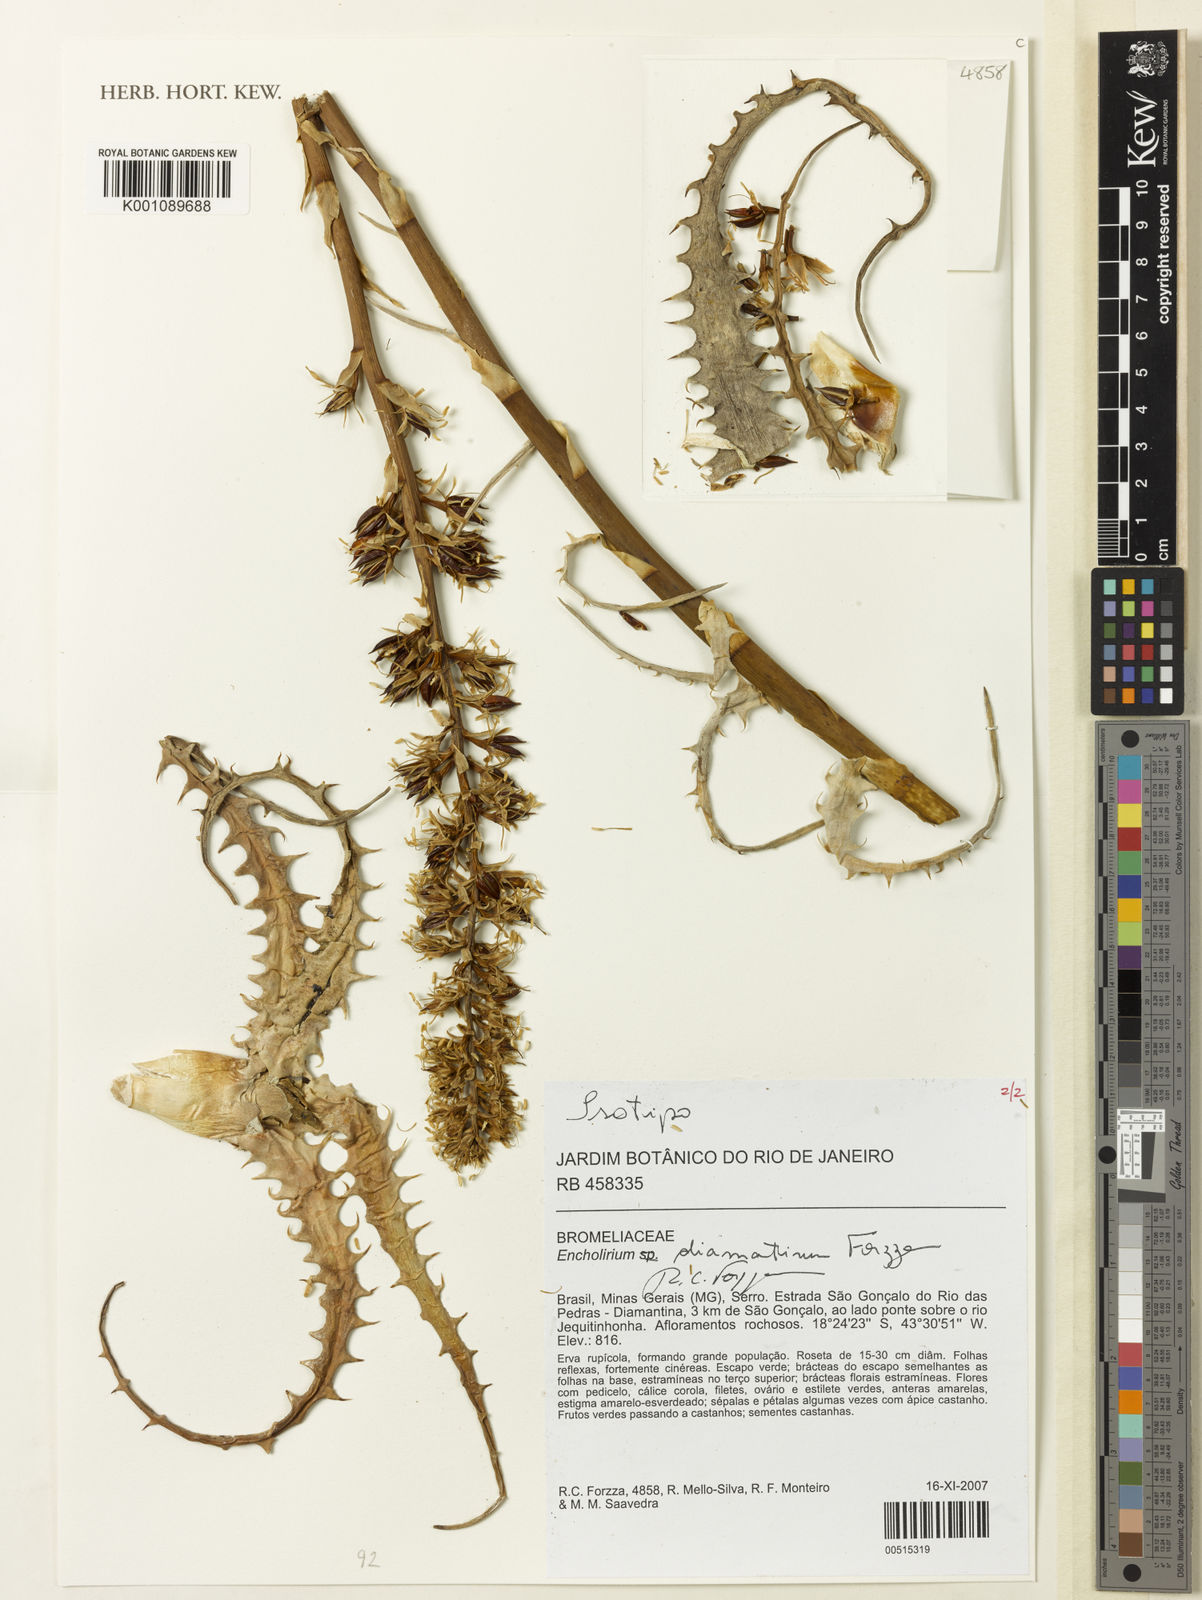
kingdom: Plantae
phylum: Tracheophyta
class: Liliopsida
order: Poales
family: Bromeliaceae
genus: Encholirium
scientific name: Encholirium diamantinum
